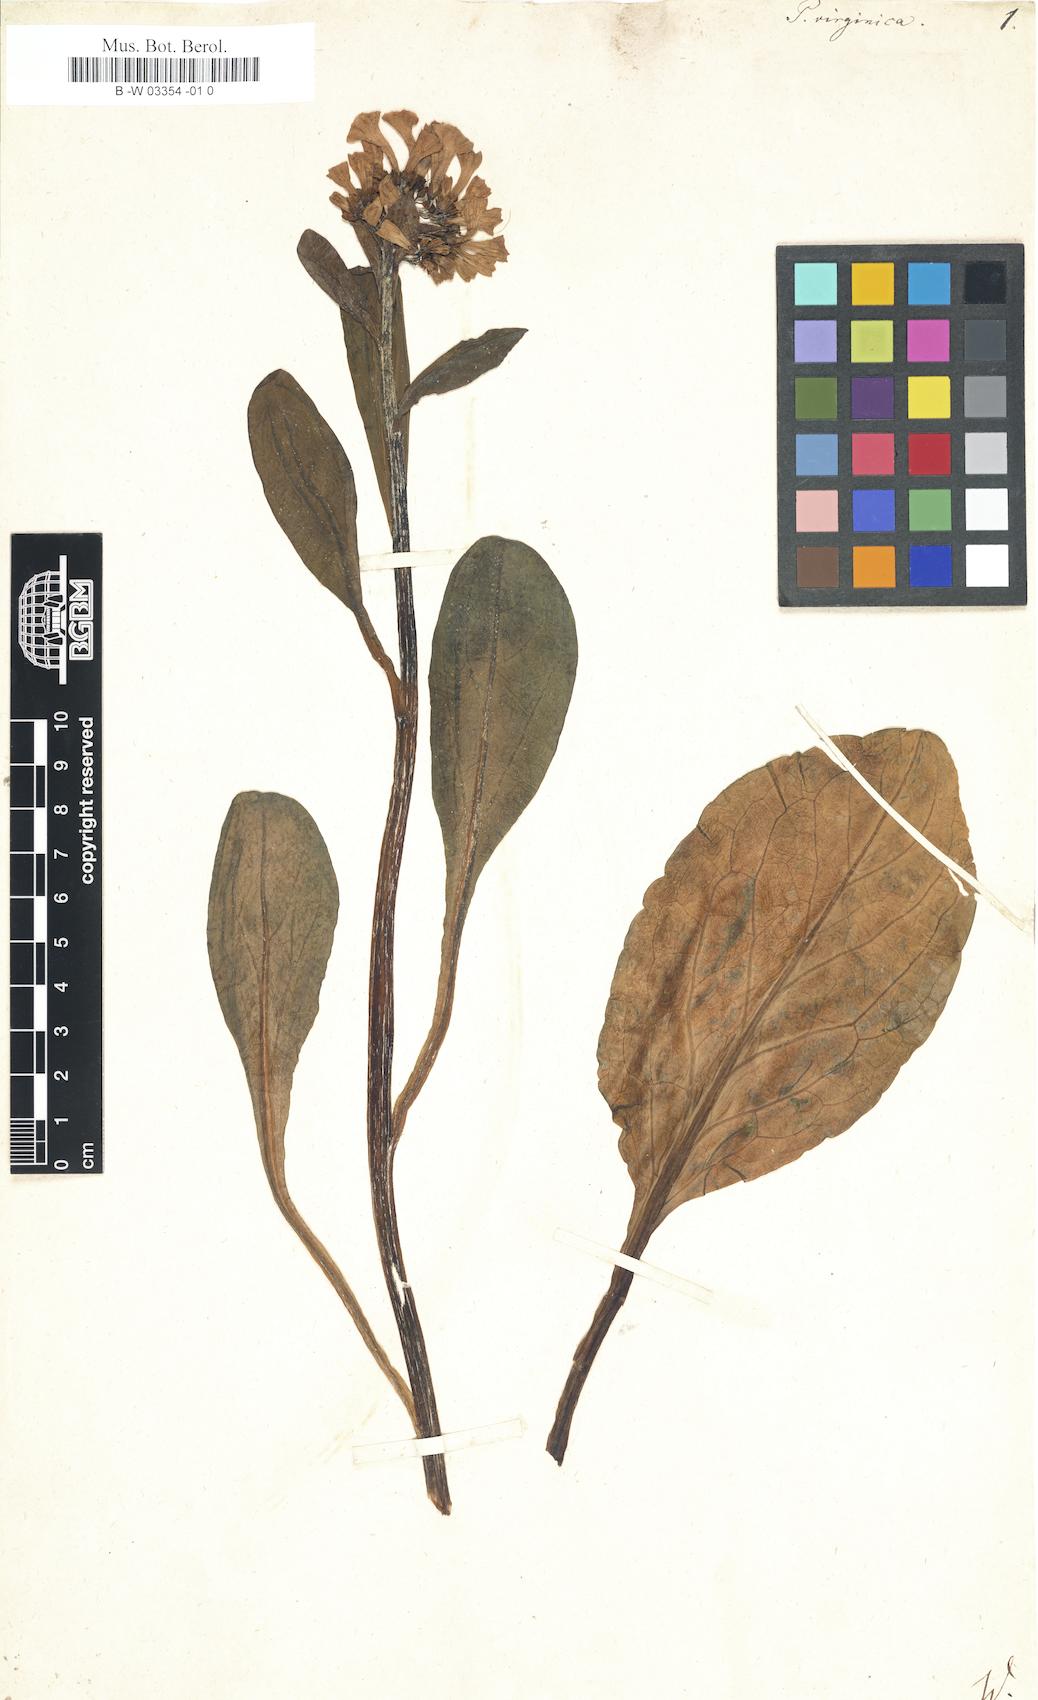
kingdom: Plantae
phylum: Tracheophyta
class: Magnoliopsida
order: Boraginales
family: Boraginaceae
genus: Mertensia
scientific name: Mertensia virginica
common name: Virginia bluebells
